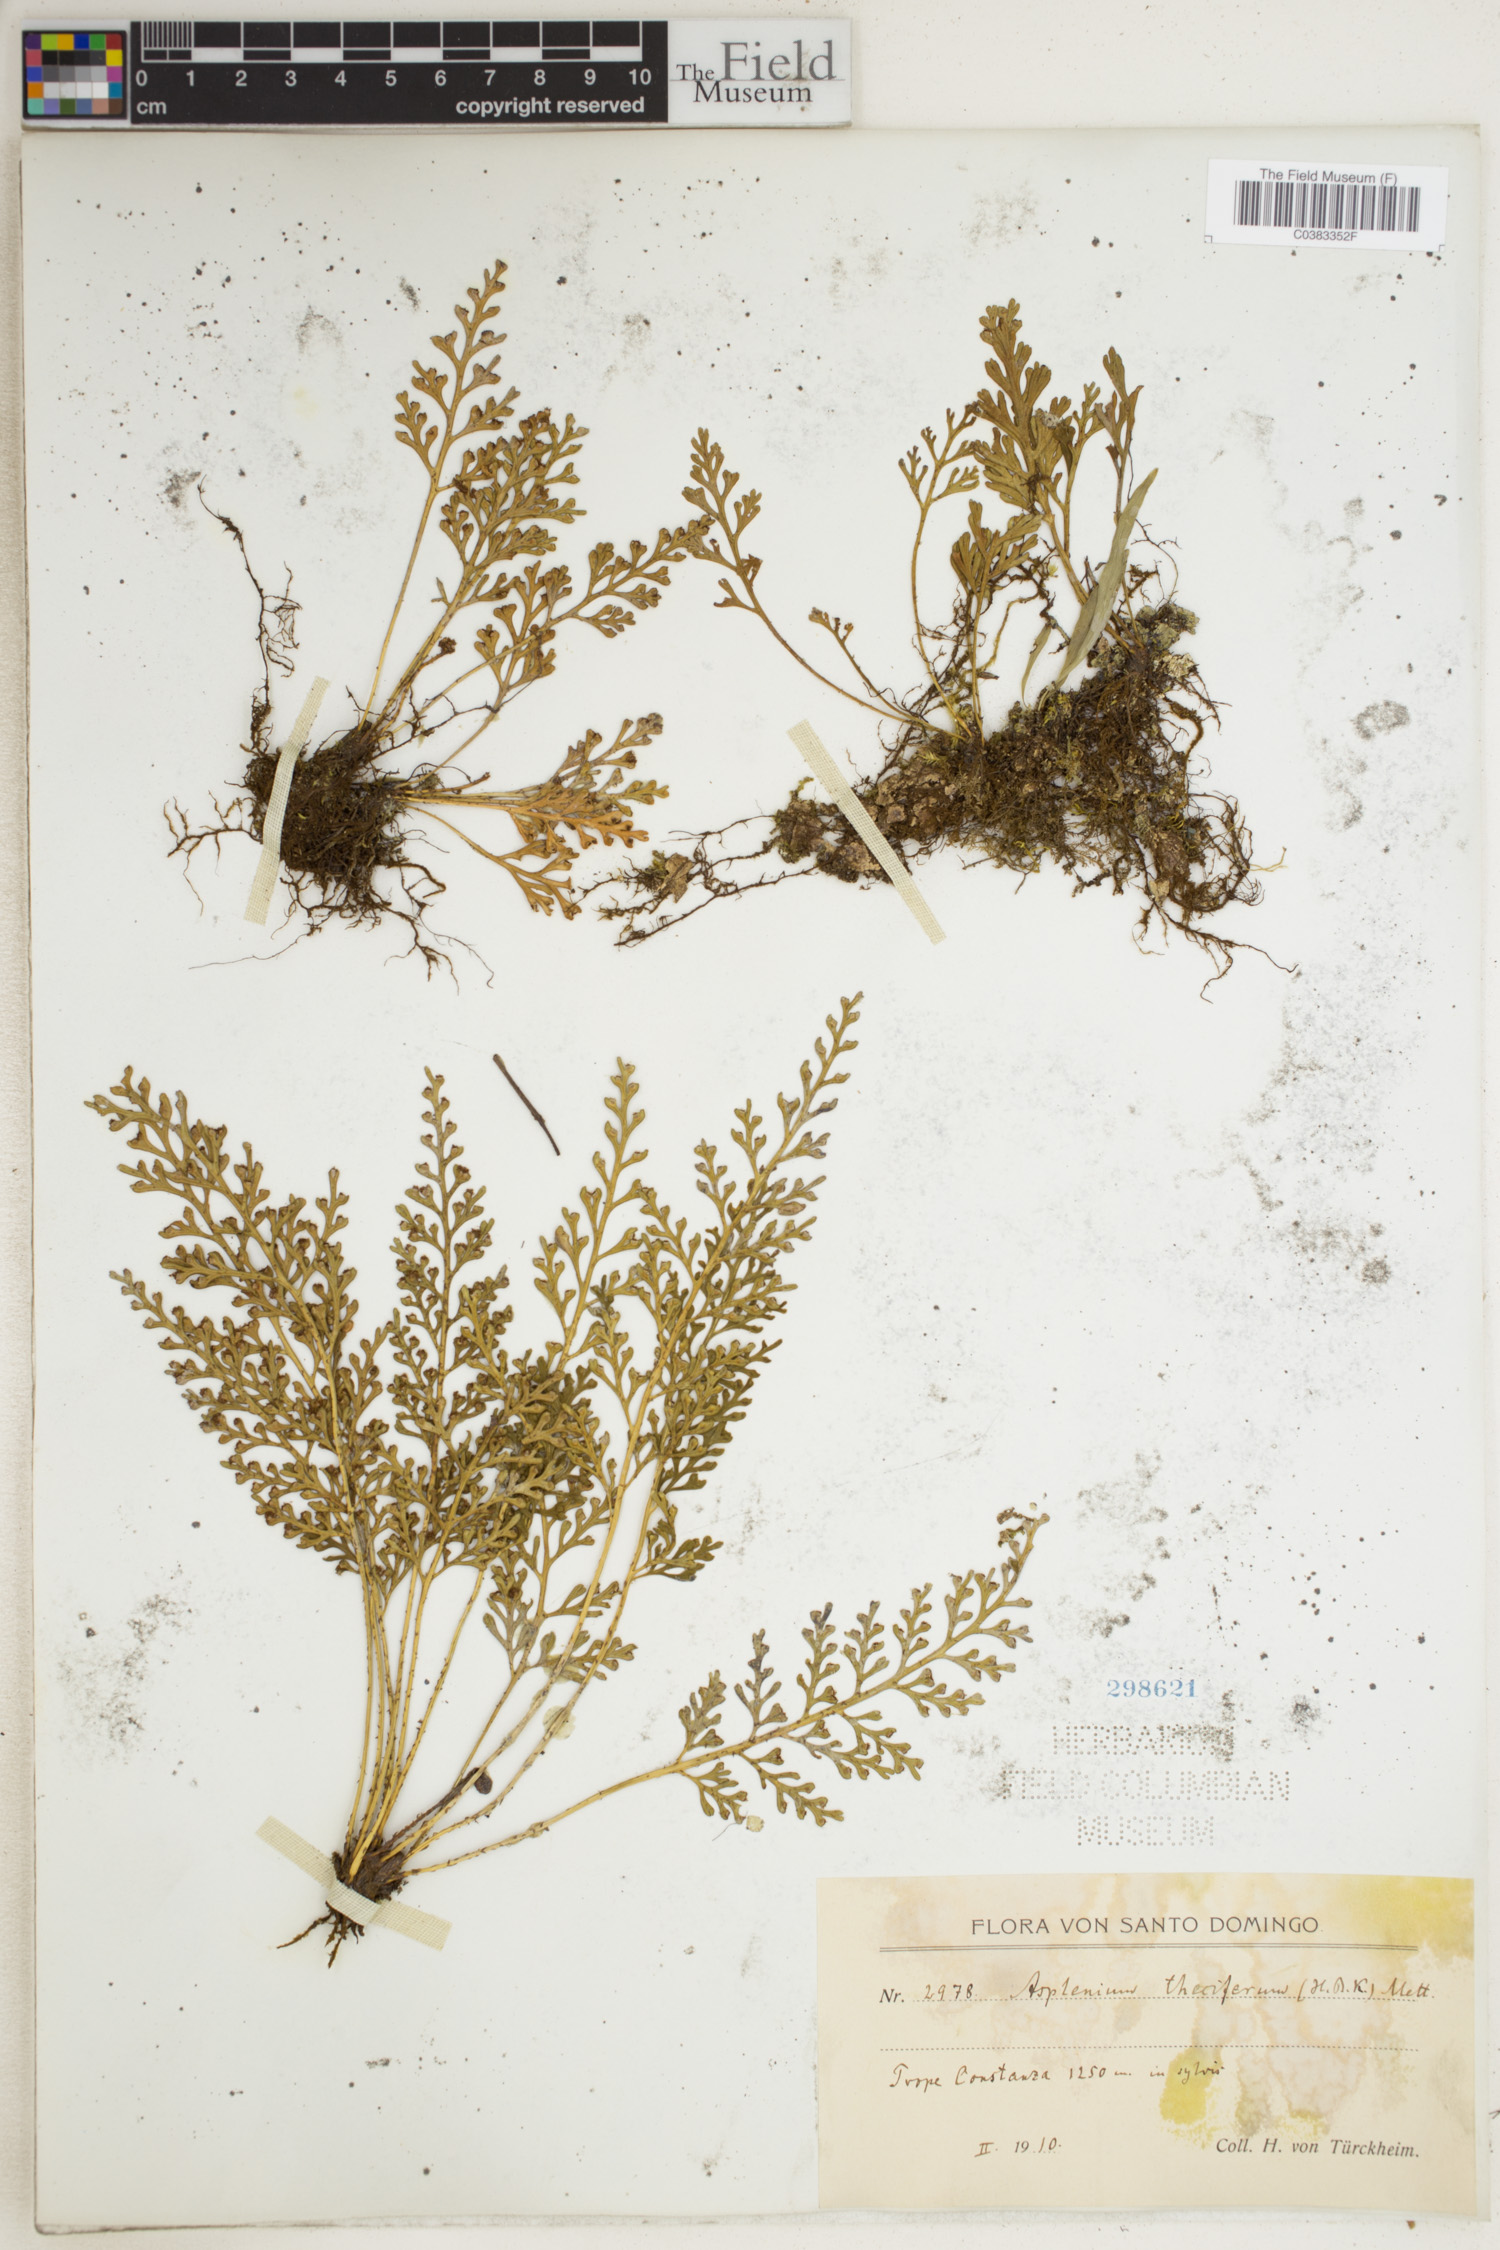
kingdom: Plantae
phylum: Tracheophyta
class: Polypodiopsida
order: Polypodiales
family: Aspleniaceae
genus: Asplenium
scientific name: Asplenium theciferum
